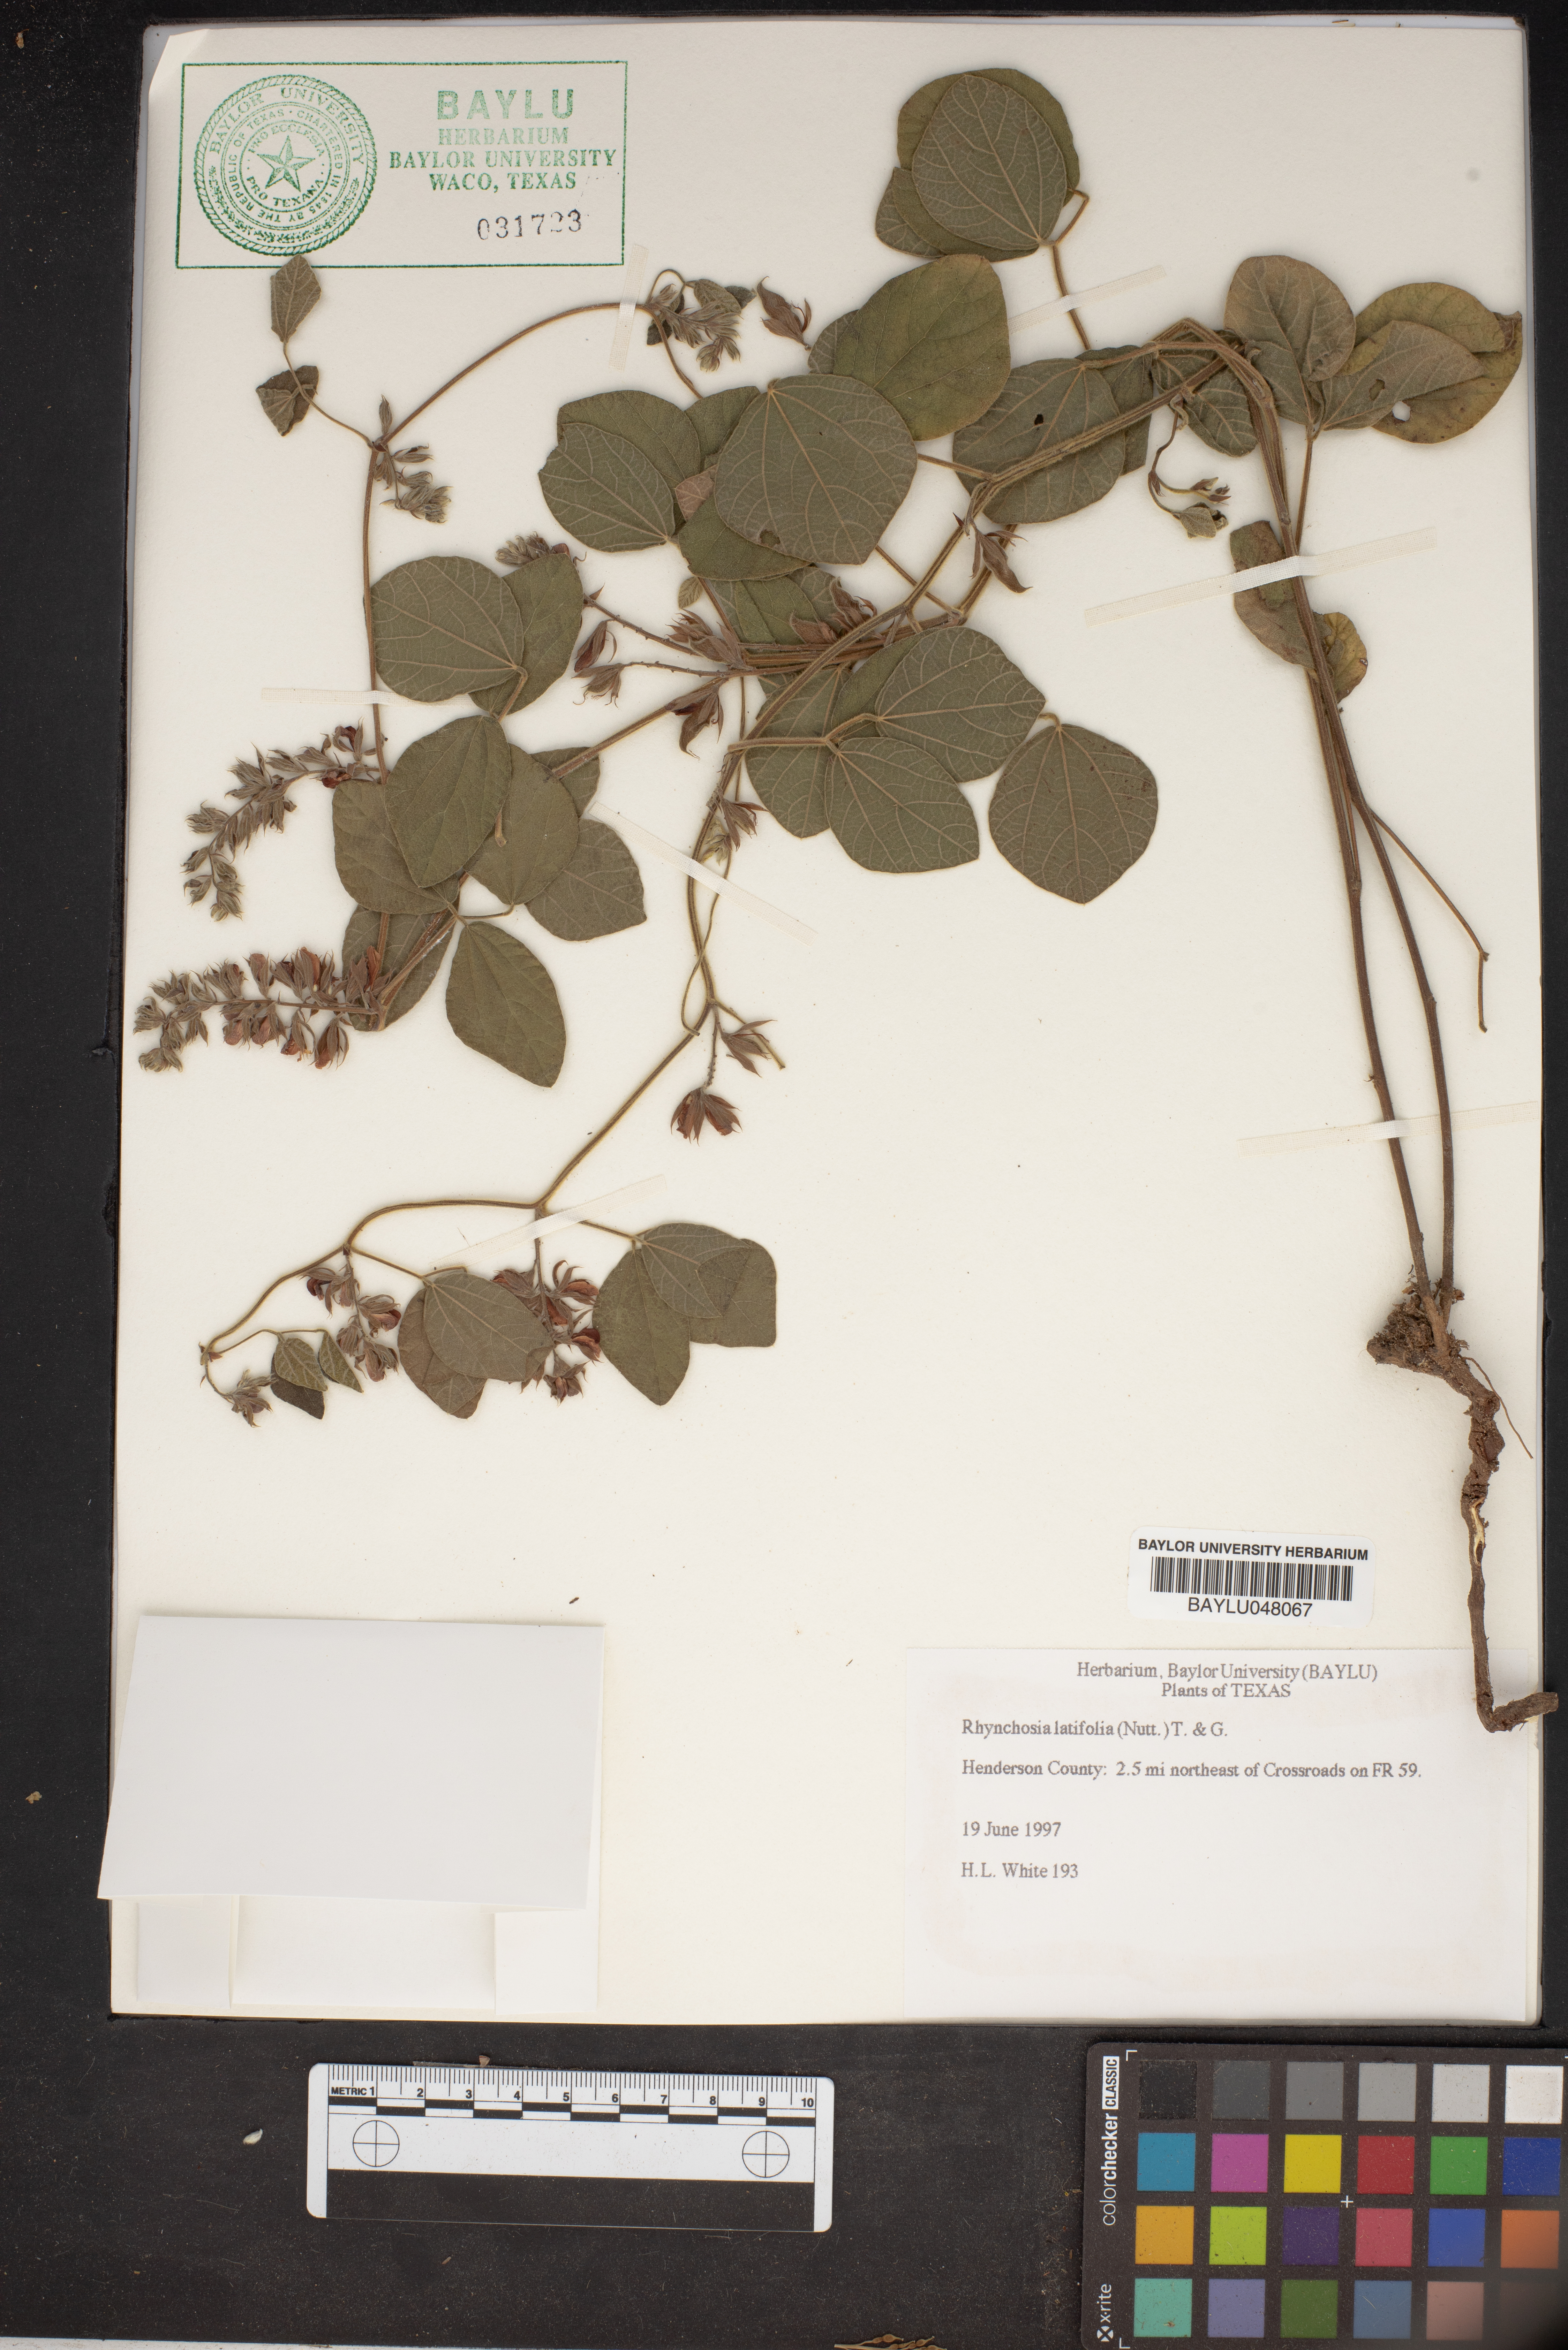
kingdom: Plantae
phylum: Tracheophyta
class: Magnoliopsida
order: Fabales
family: Fabaceae
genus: Rhynchosia
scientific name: Rhynchosia latifolia
